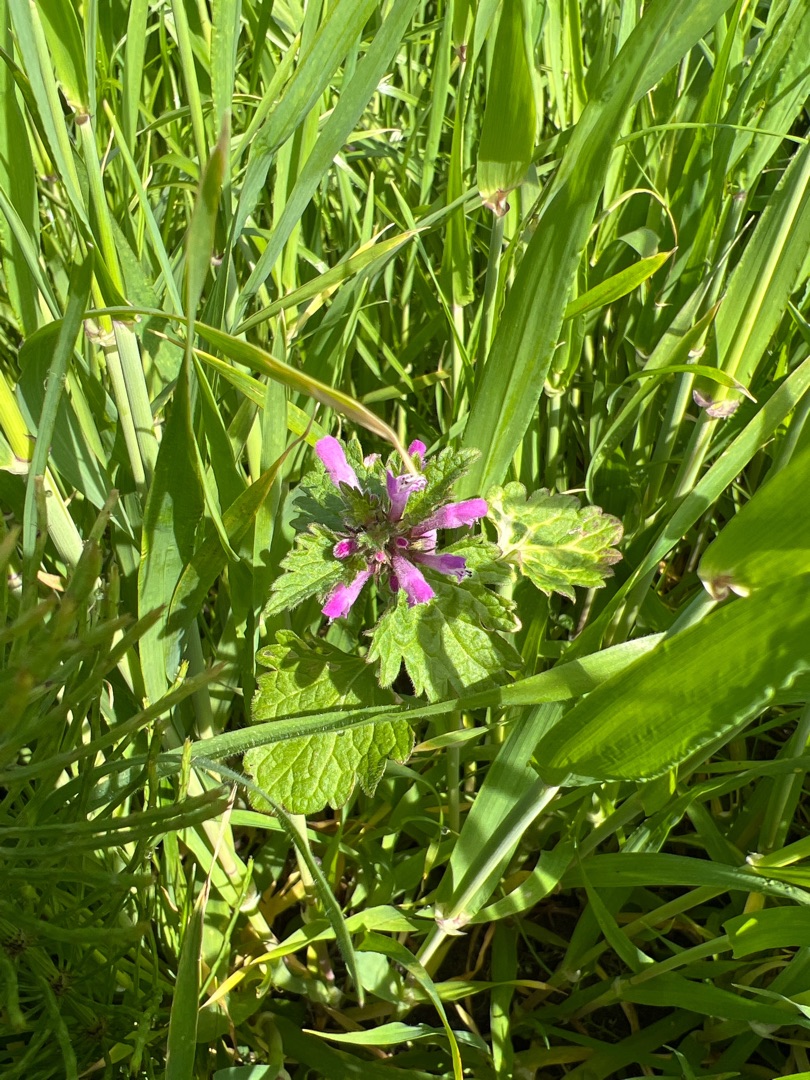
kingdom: Plantae
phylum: Tracheophyta
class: Magnoliopsida
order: Lamiales
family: Lamiaceae
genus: Lamium
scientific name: Lamium hybridum
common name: Fliget tvetand
